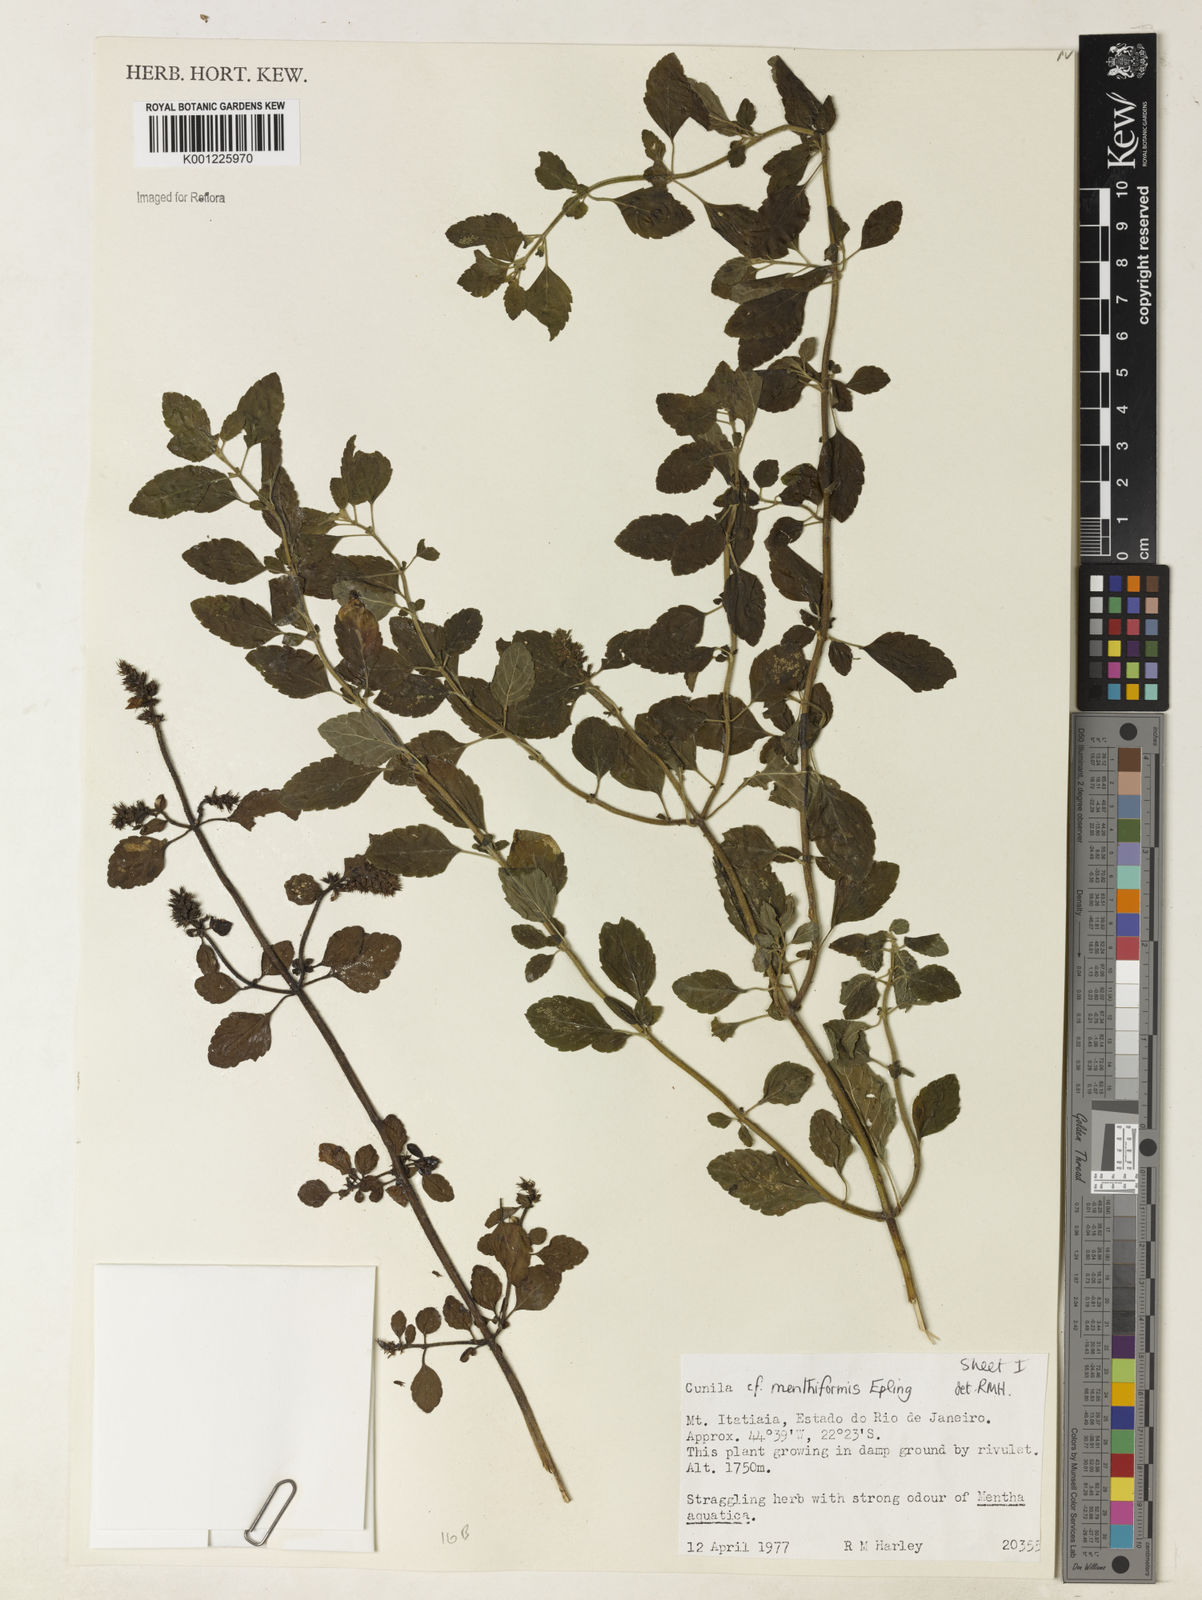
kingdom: Plantae
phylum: Tracheophyta
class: Magnoliopsida
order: Lamiales
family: Lamiaceae
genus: Cunila
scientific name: Cunila menthiformis
